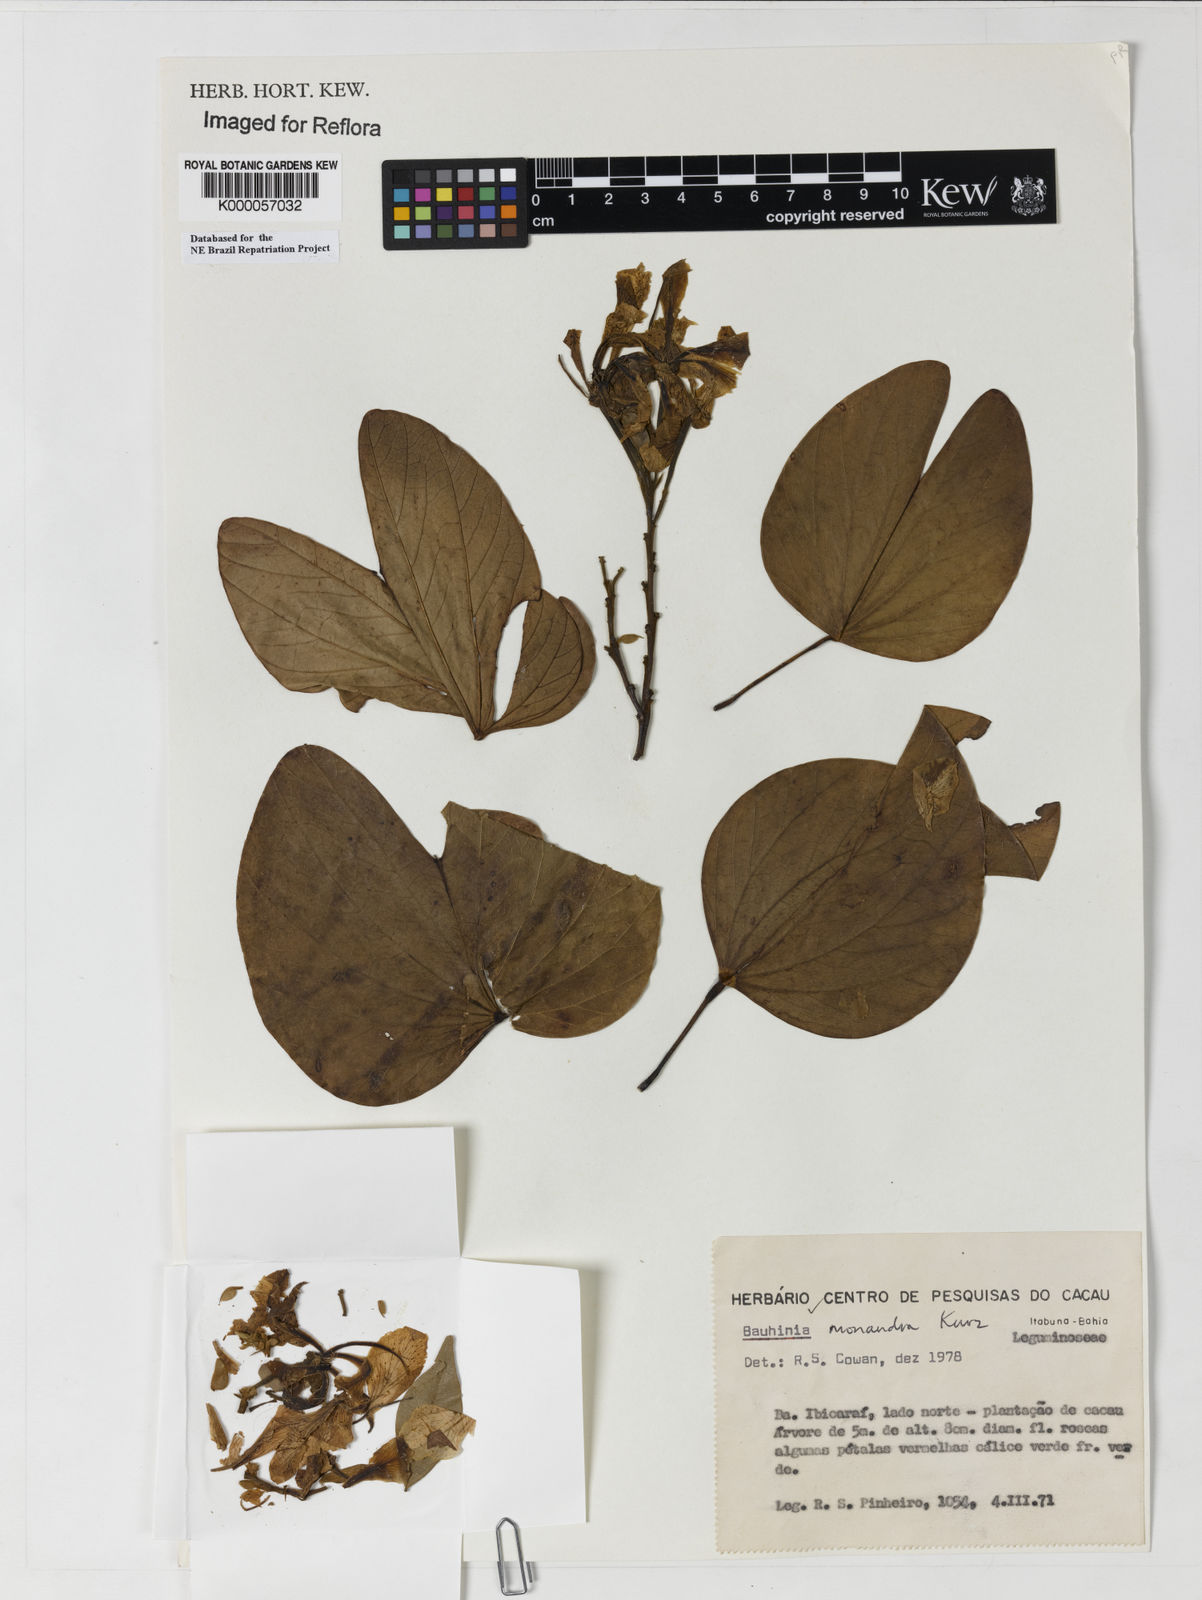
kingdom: Plantae
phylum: Tracheophyta
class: Magnoliopsida
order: Fabales
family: Fabaceae
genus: Bauhinia
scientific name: Bauhinia monandra
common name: Napoleon's plume
